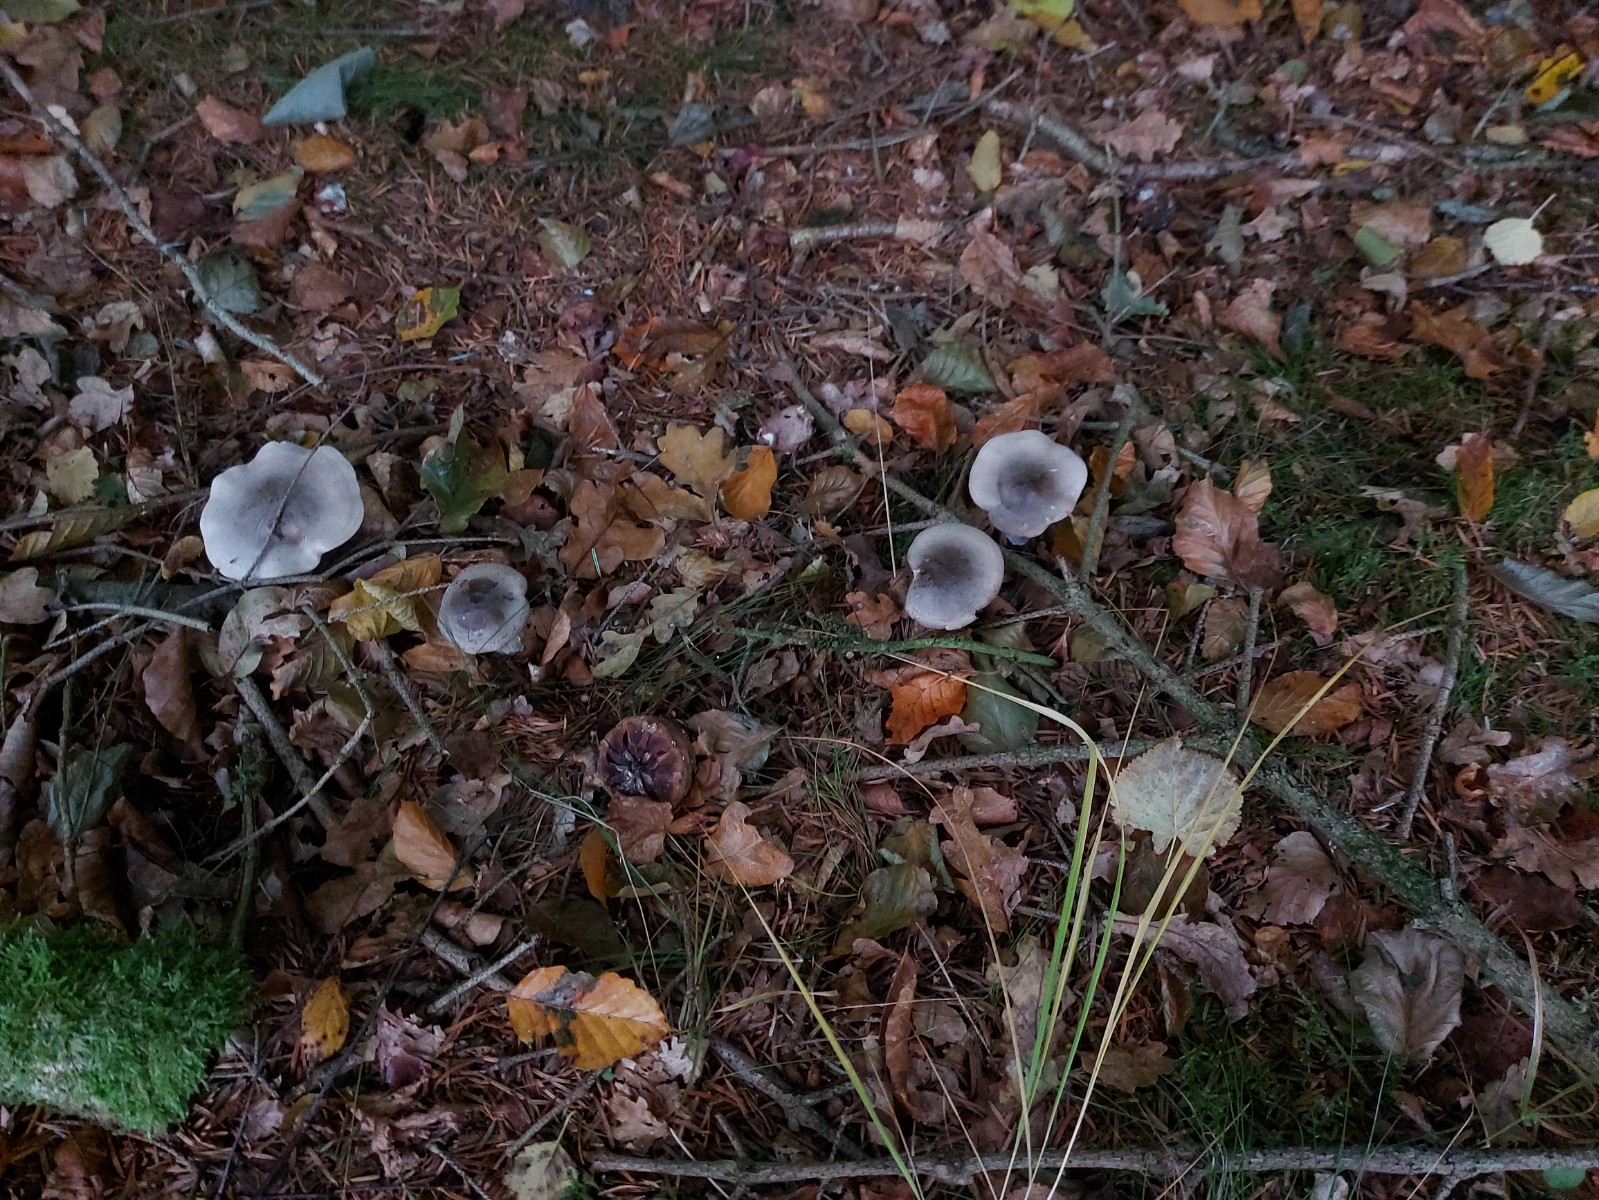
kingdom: Fungi
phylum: Basidiomycota
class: Agaricomycetes
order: Agaricales
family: Tricholomataceae
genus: Clitocybe
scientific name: Clitocybe nebularis
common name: tåge-tragthat
